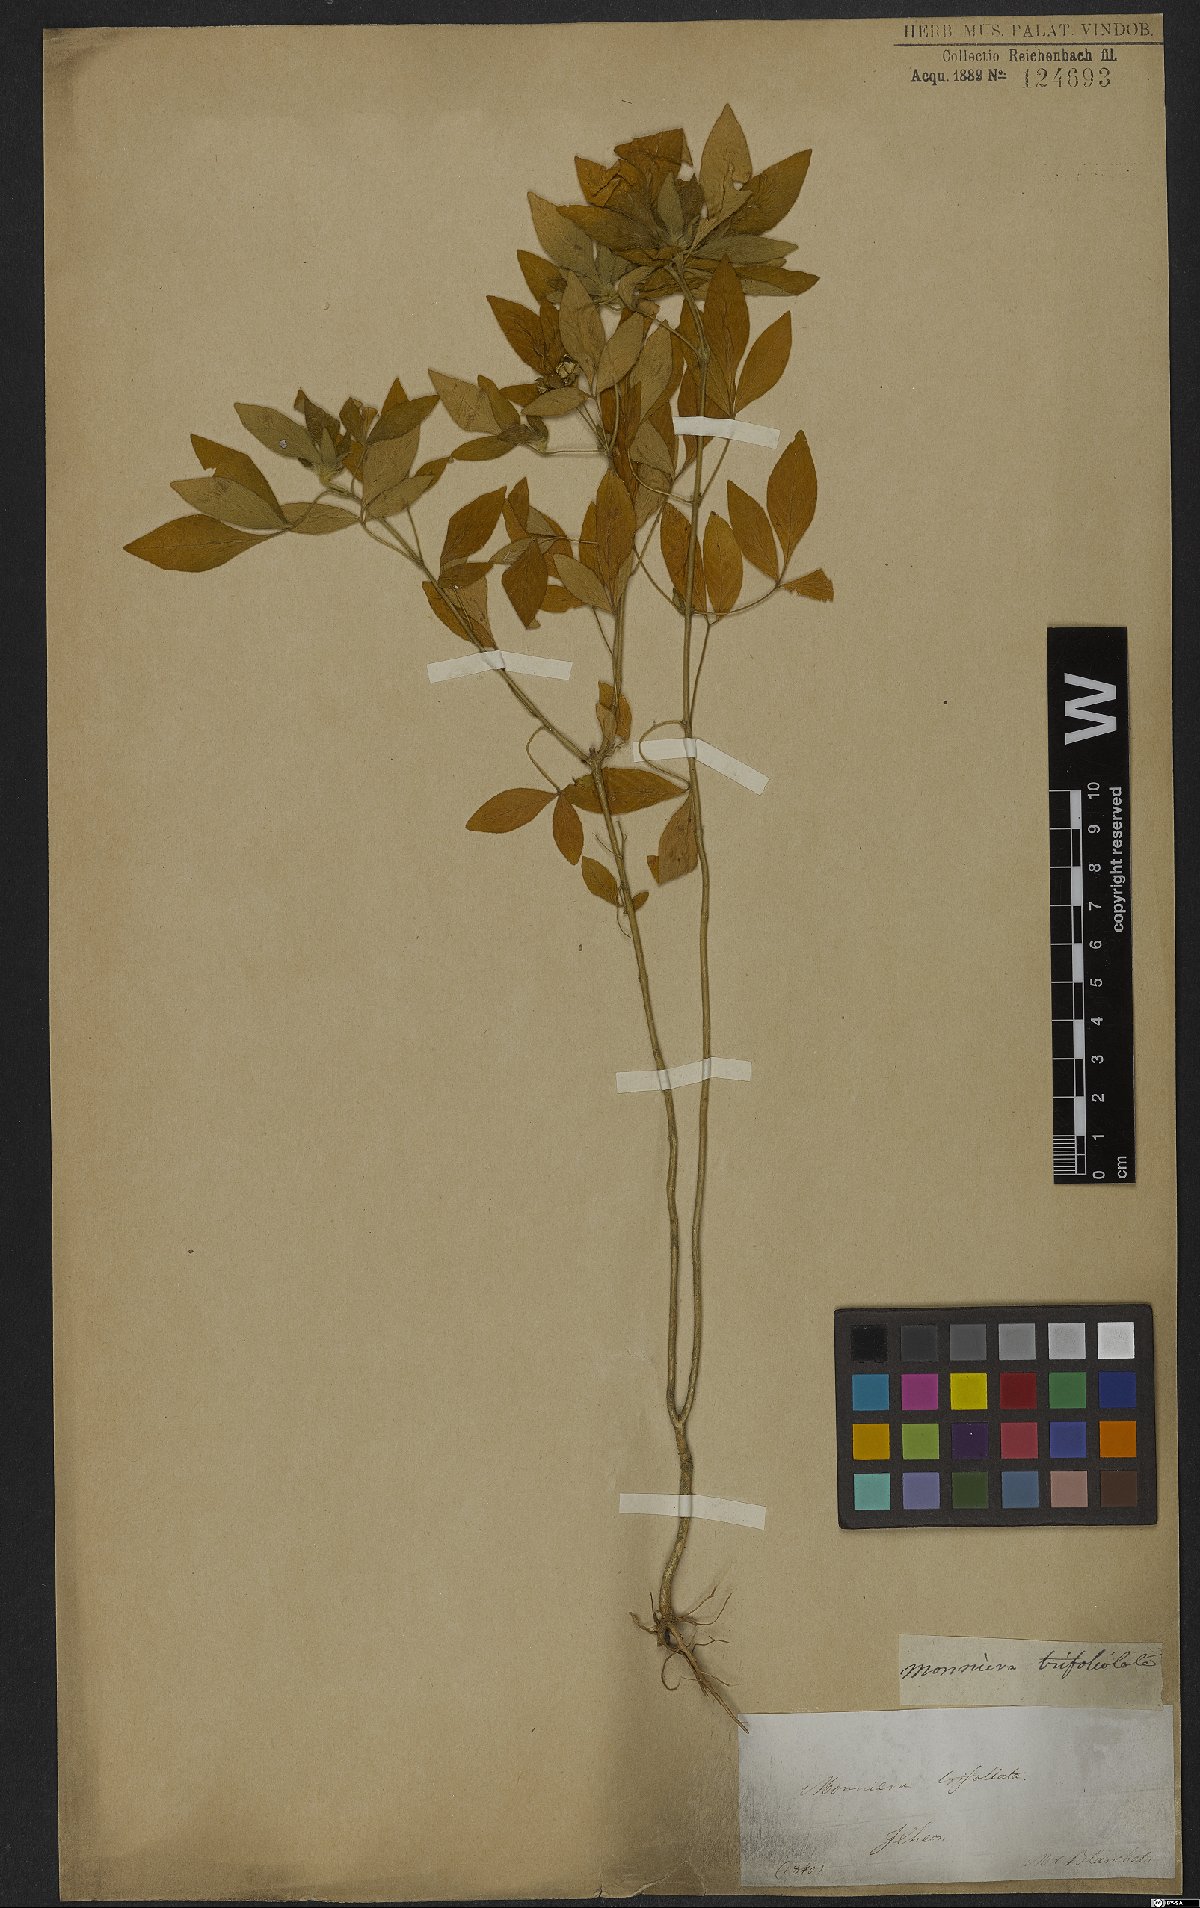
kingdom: Plantae
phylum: Tracheophyta
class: Magnoliopsida
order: Sapindales
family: Rutaceae
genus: Ertela
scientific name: Ertela trifolia
